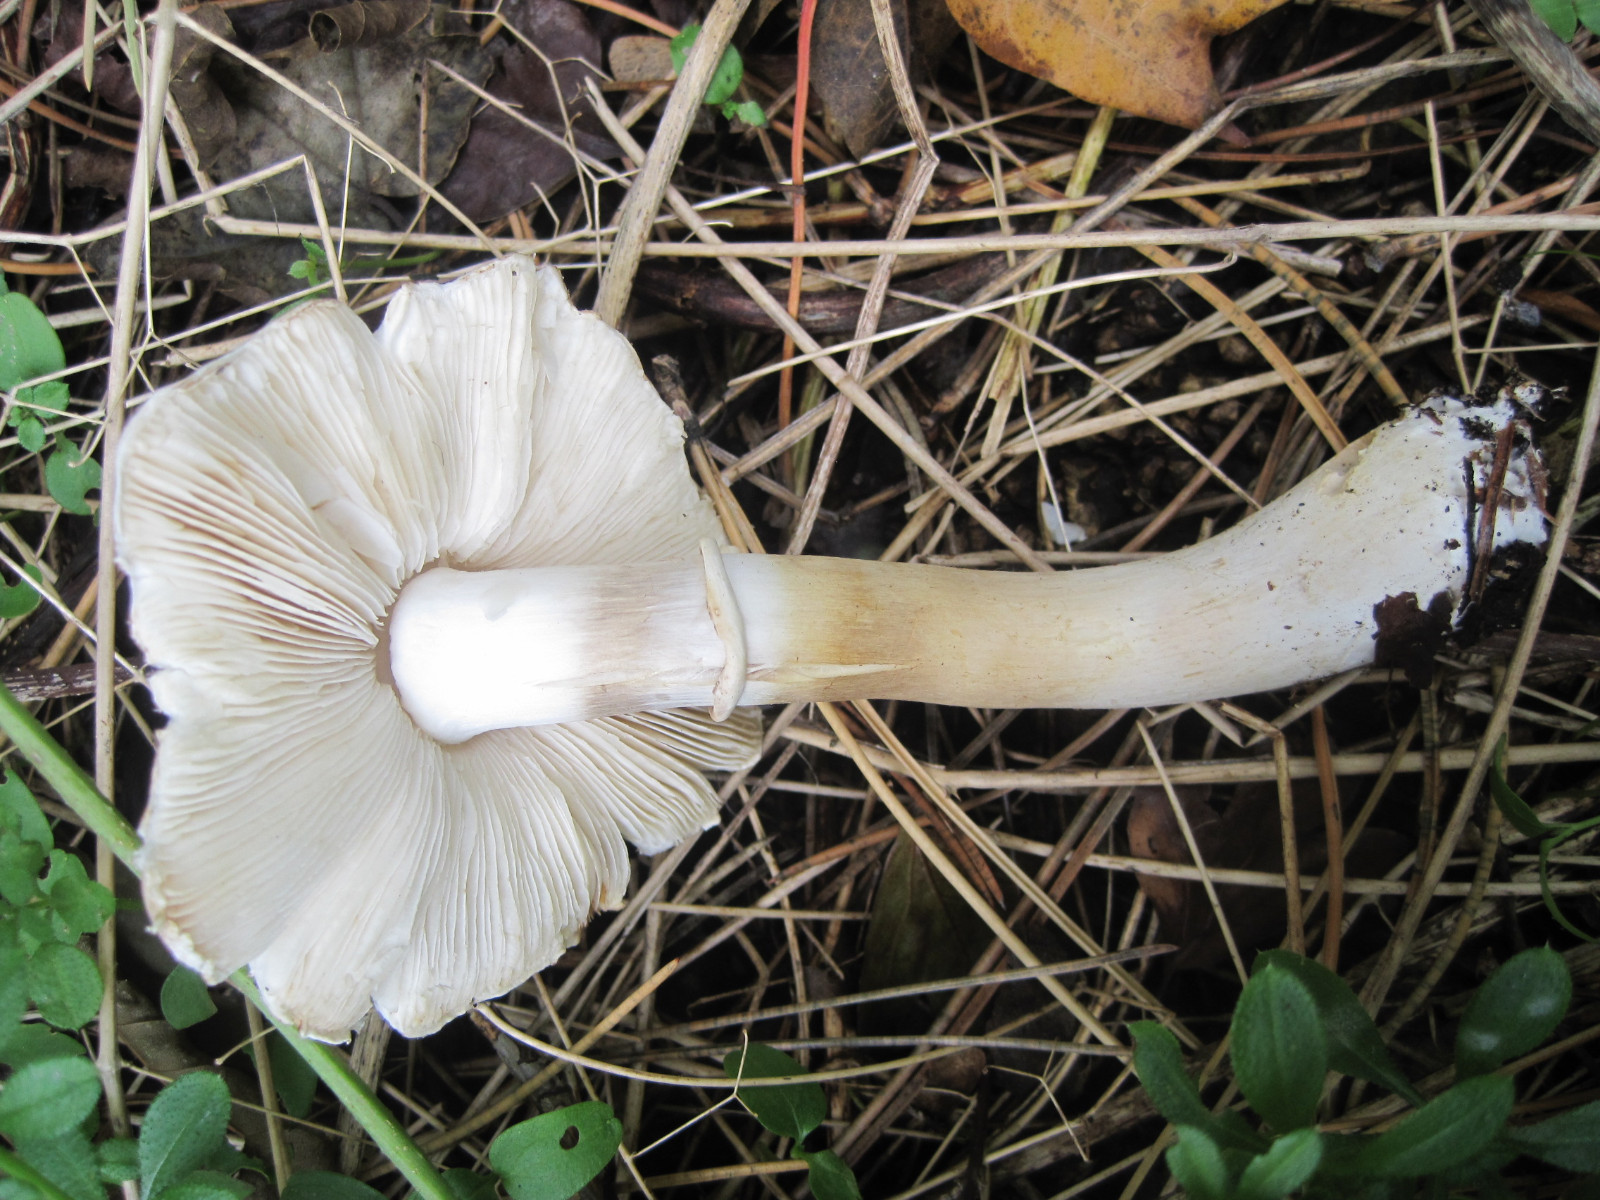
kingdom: Fungi
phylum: Basidiomycota
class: Agaricomycetes
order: Agaricales
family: Agaricaceae
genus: Leucoagaricus
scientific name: Leucoagaricus leucothites
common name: rosabladet silkehat
